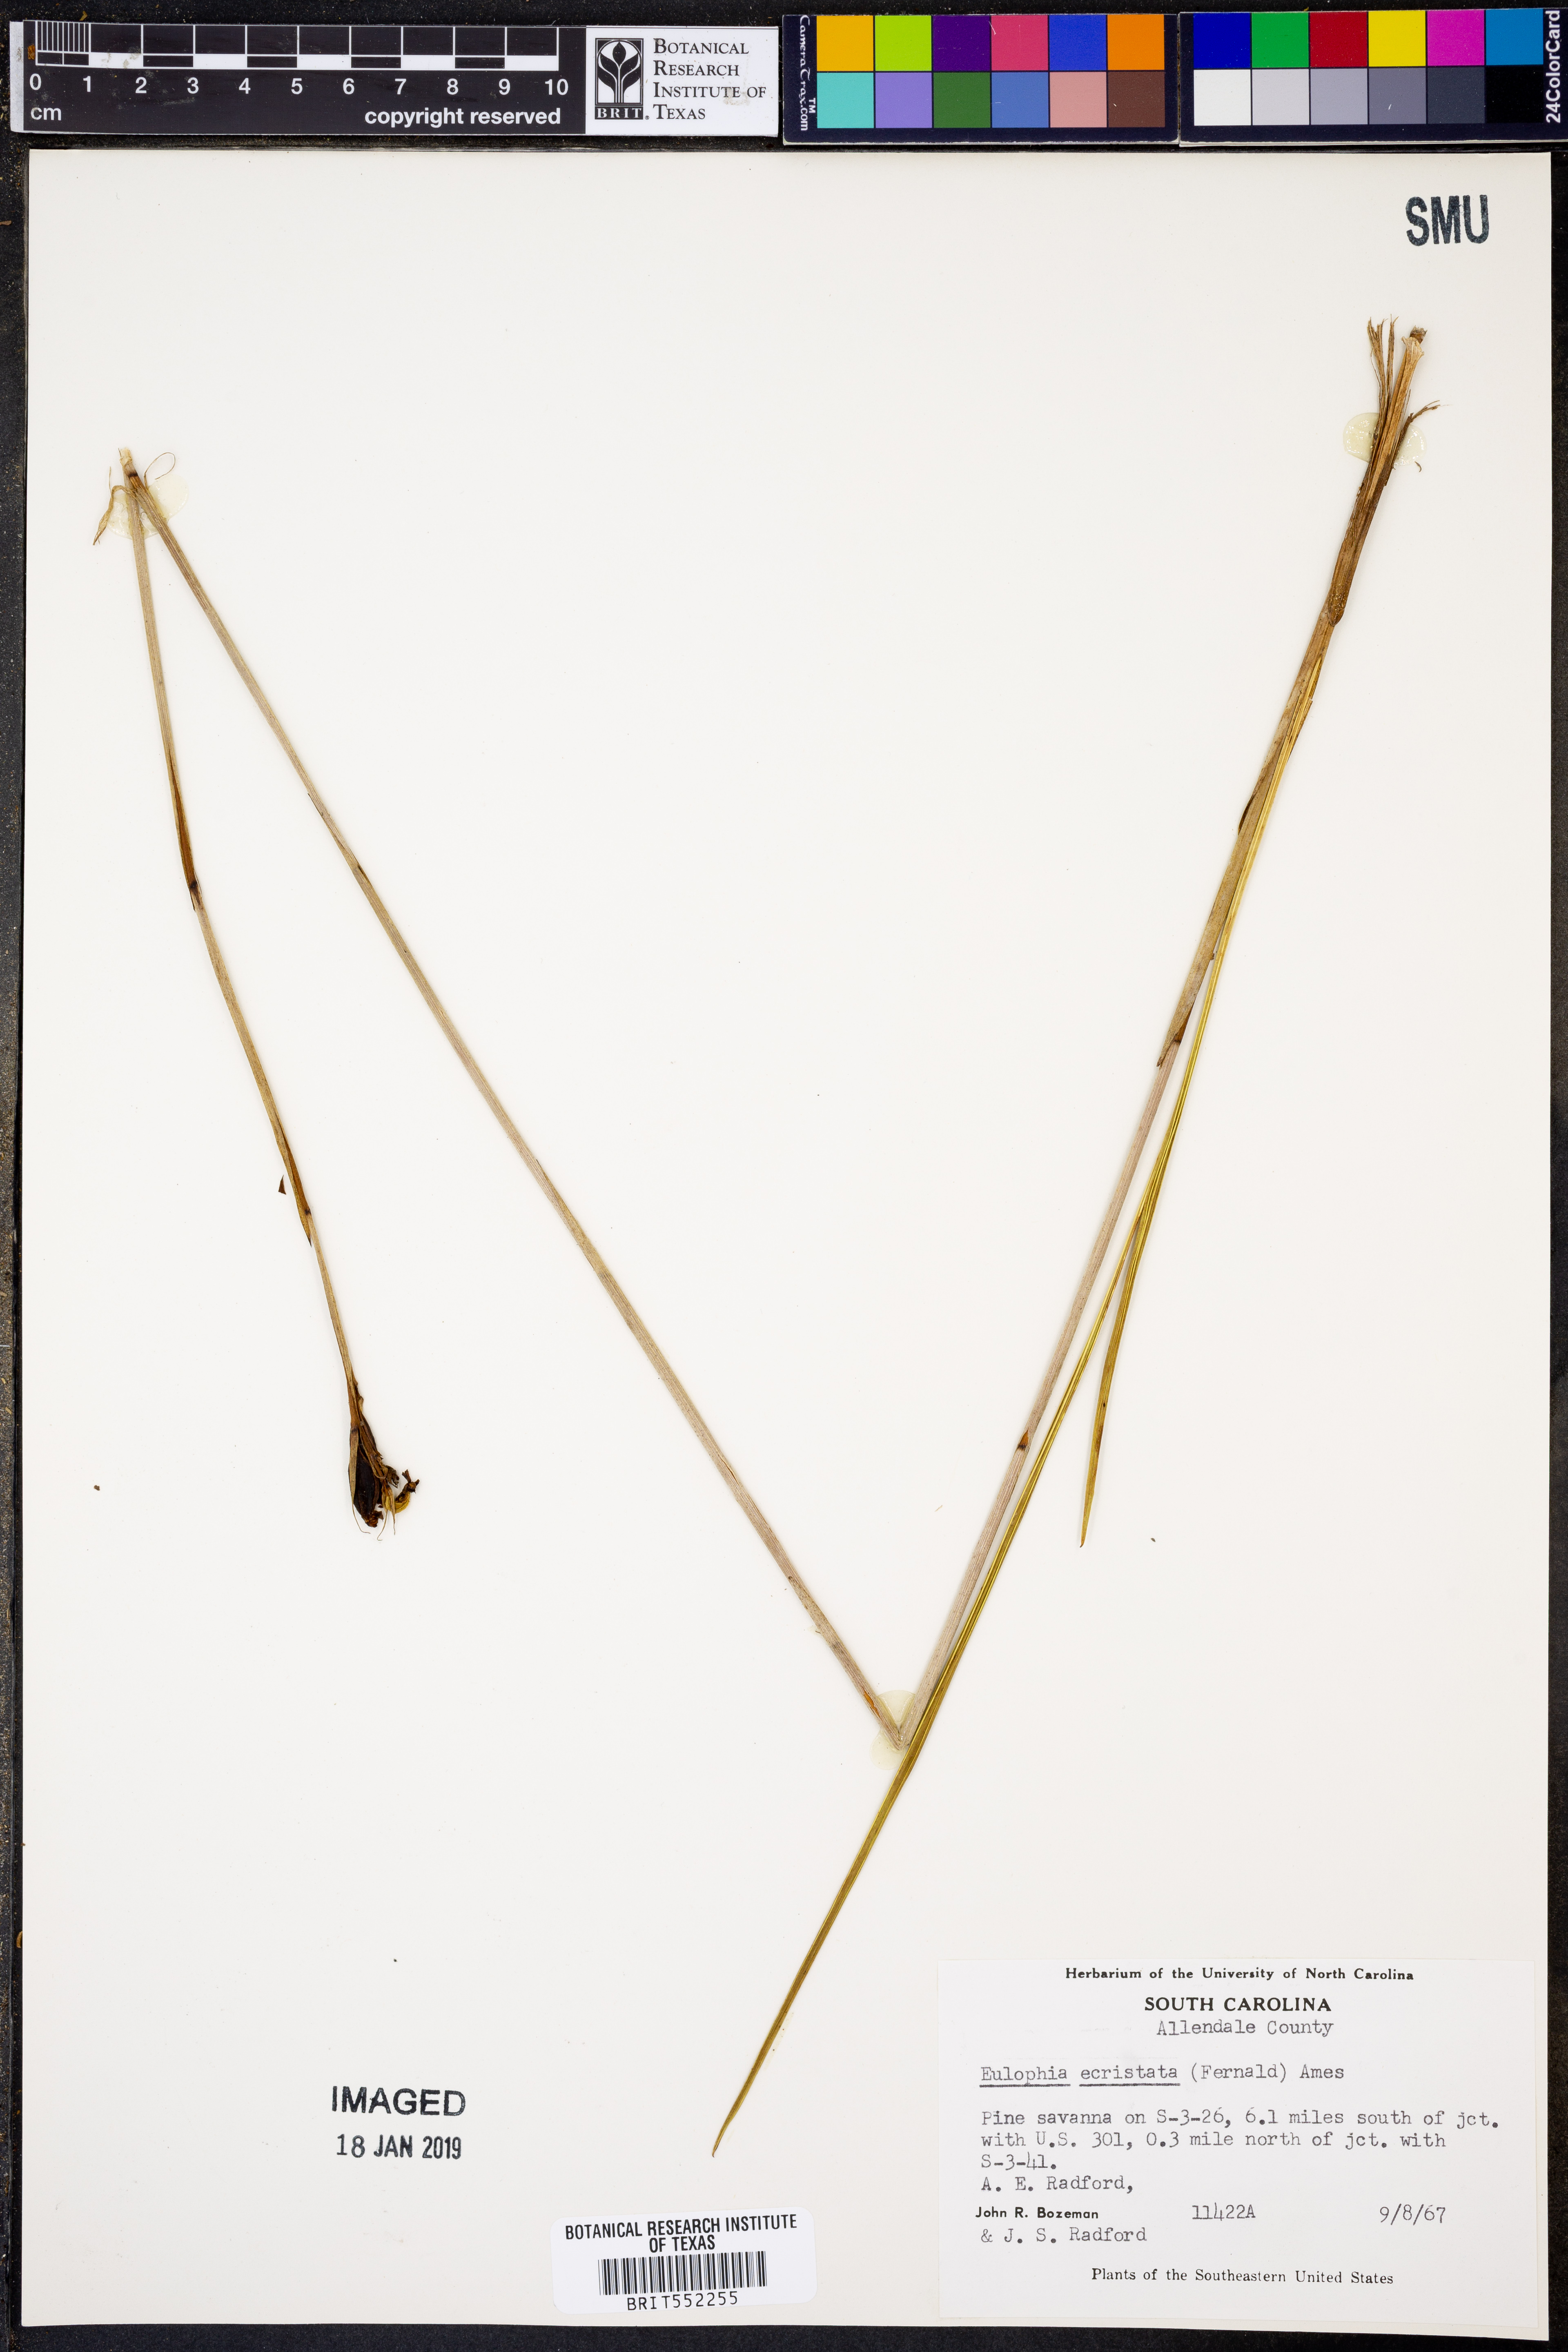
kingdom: Plantae
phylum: Tracheophyta
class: Liliopsida
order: Asparagales
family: Orchidaceae
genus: Eulophia
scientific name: Eulophia ecristata
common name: Giant orchid
